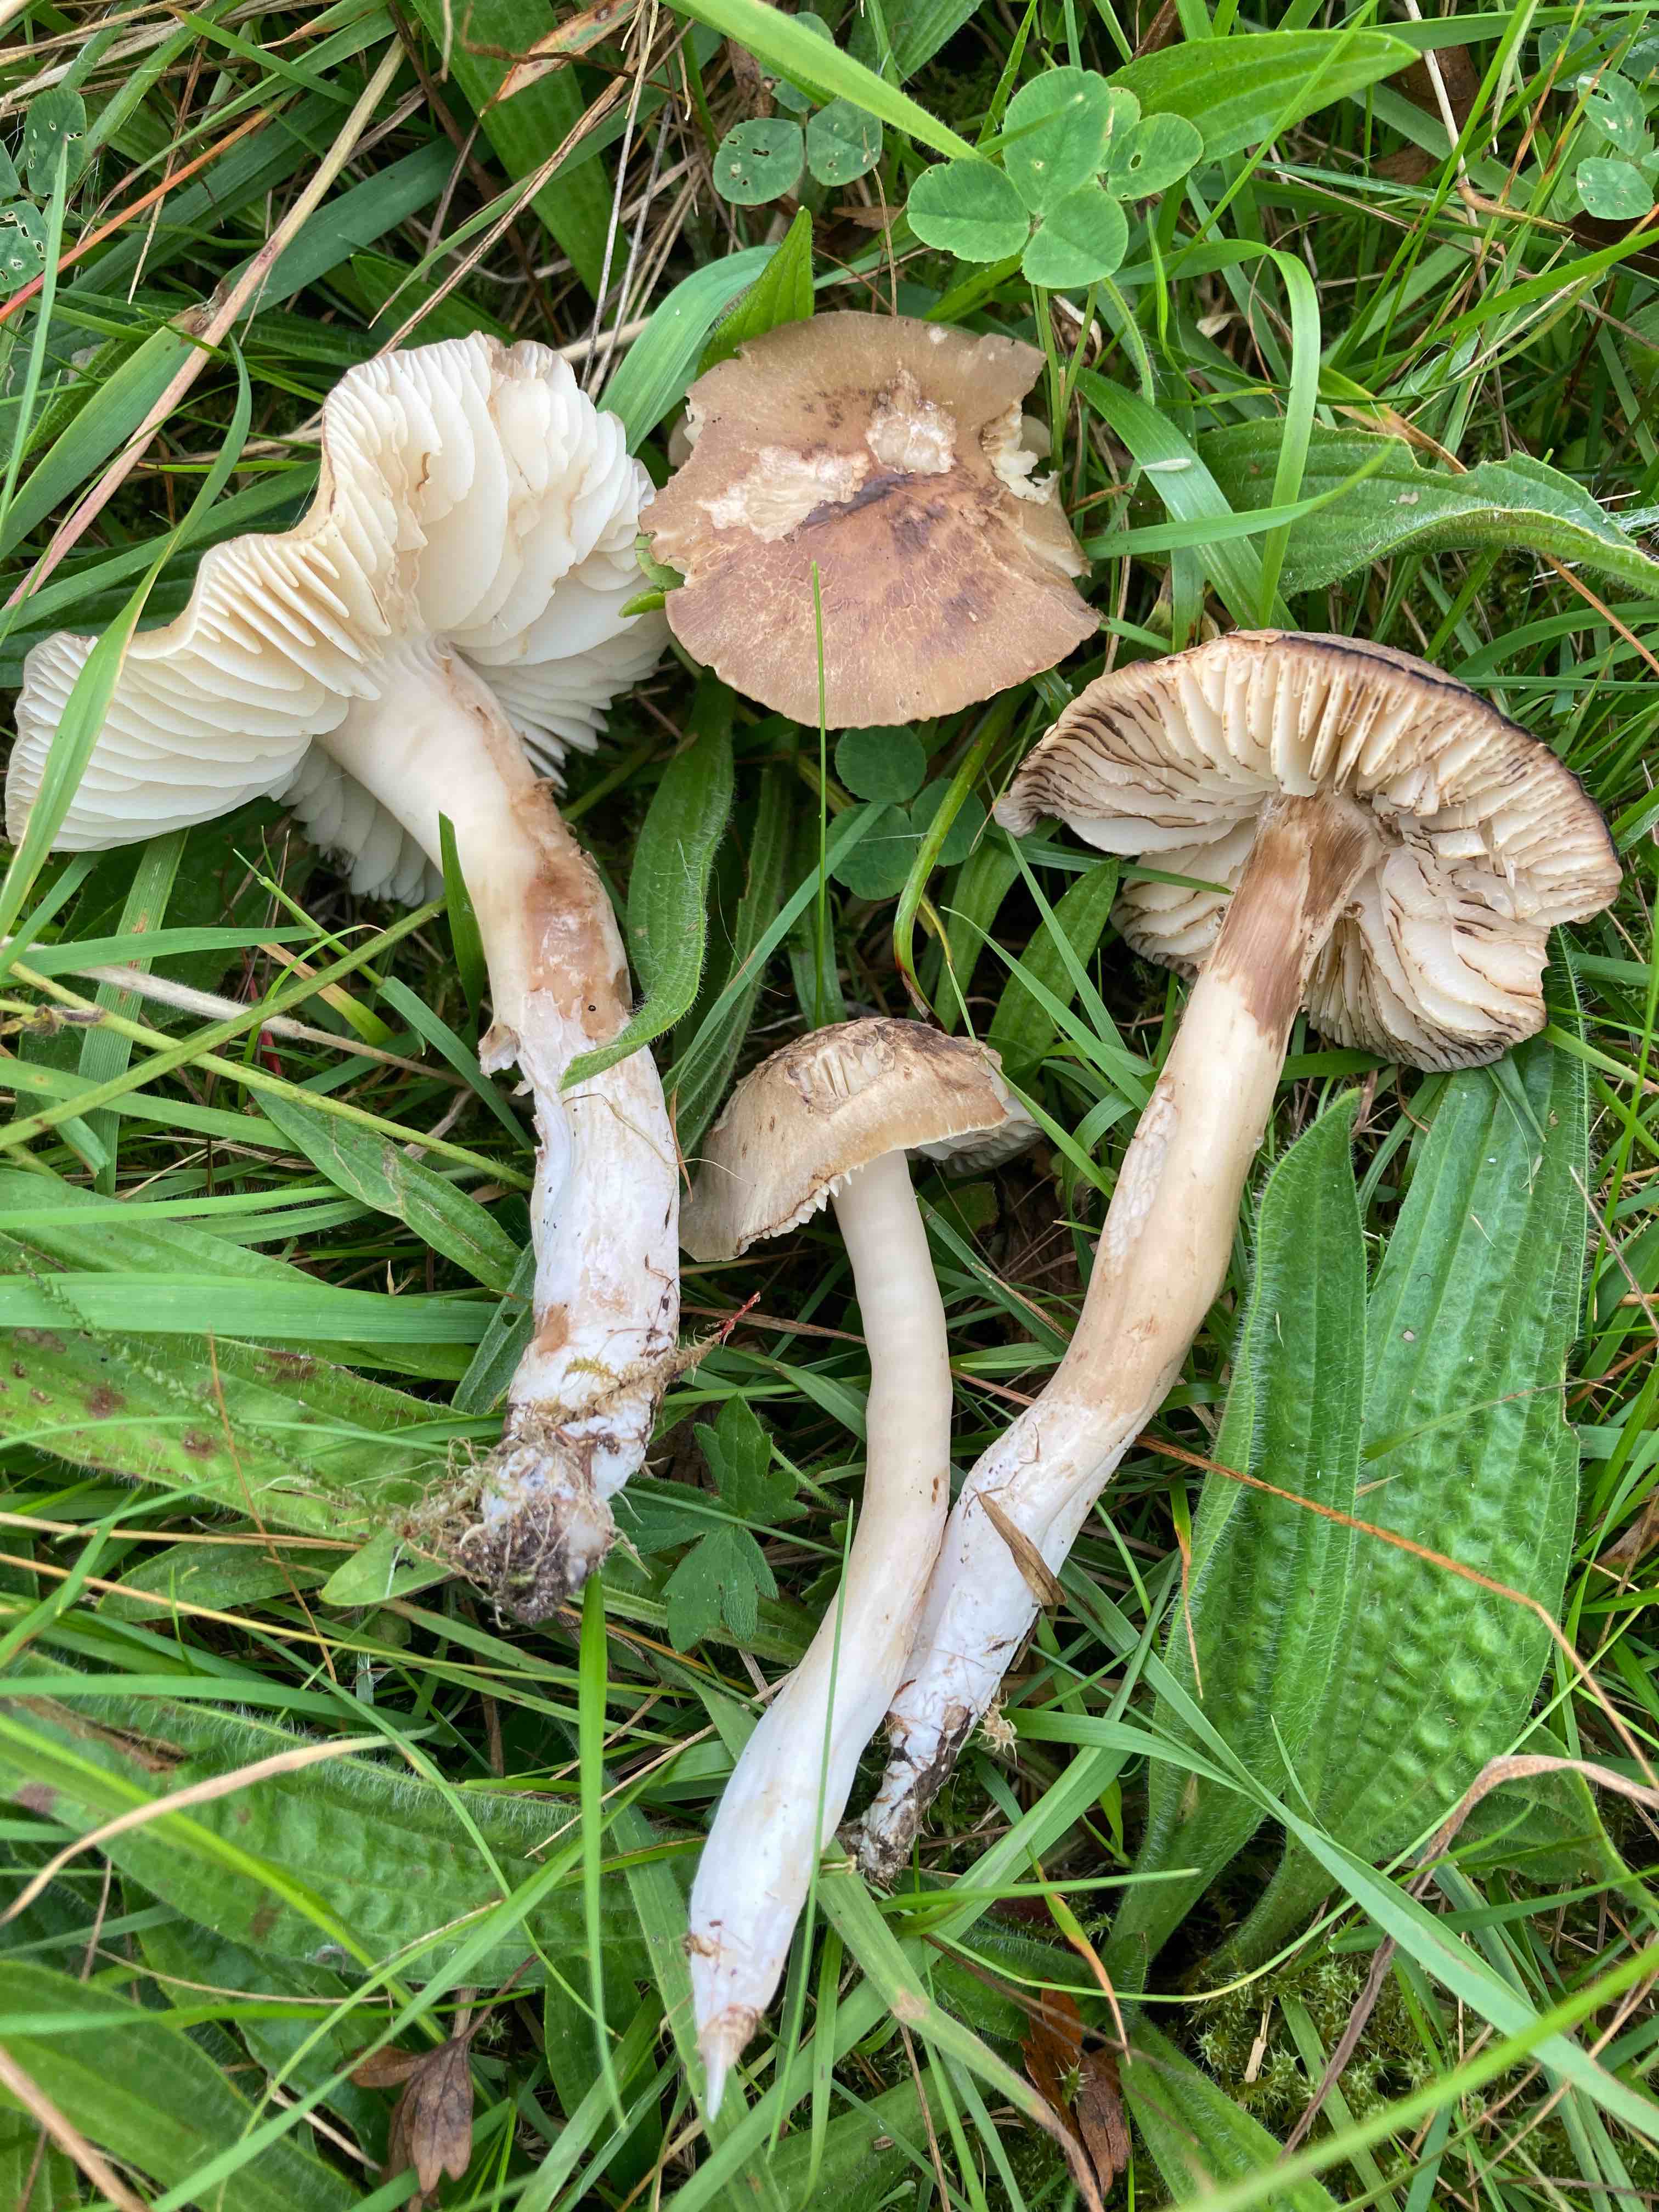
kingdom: Fungi
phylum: Basidiomycota
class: Agaricomycetes
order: Agaricales
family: Hygrophoraceae
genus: Hygrocybe
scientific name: Hygrocybe ingrata
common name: Jensens vokshat
